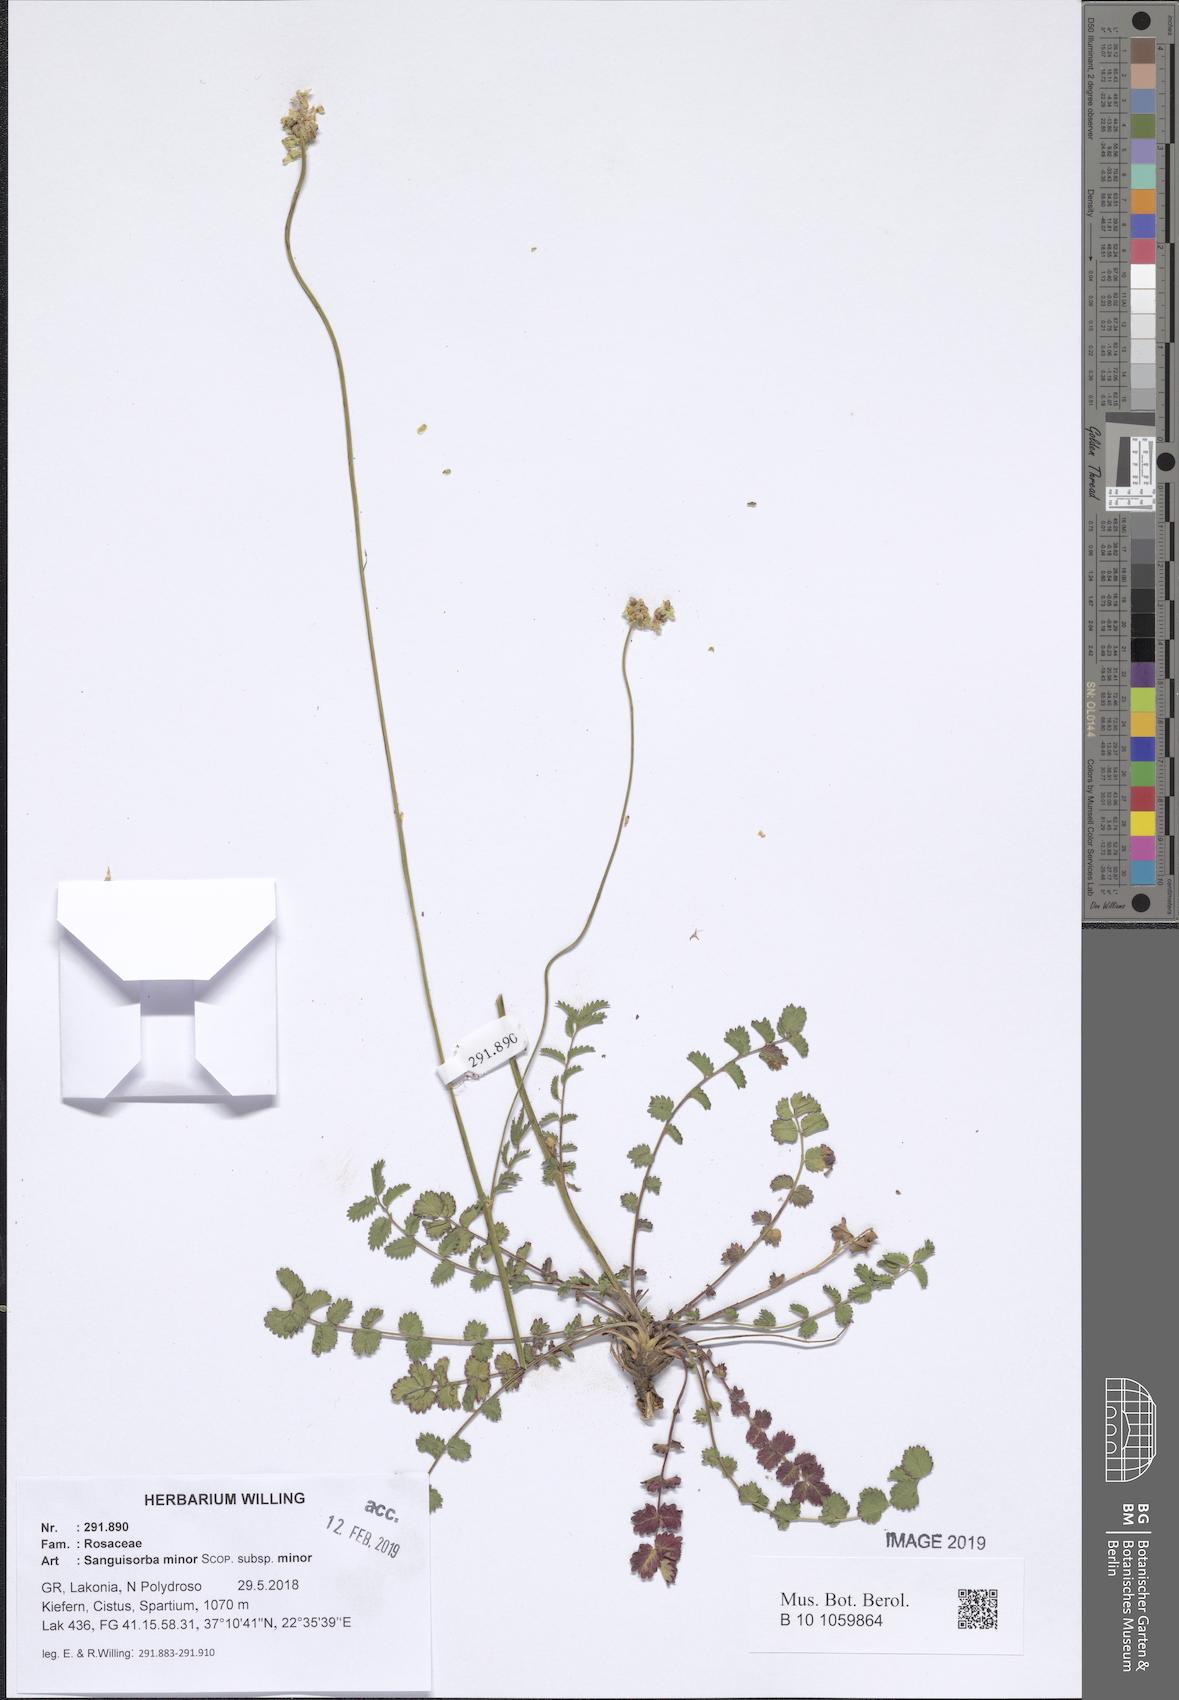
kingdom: Plantae
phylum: Tracheophyta
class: Magnoliopsida
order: Rosales
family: Rosaceae
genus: Poterium
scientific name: Poterium sanguisorba
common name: Salad burnet
